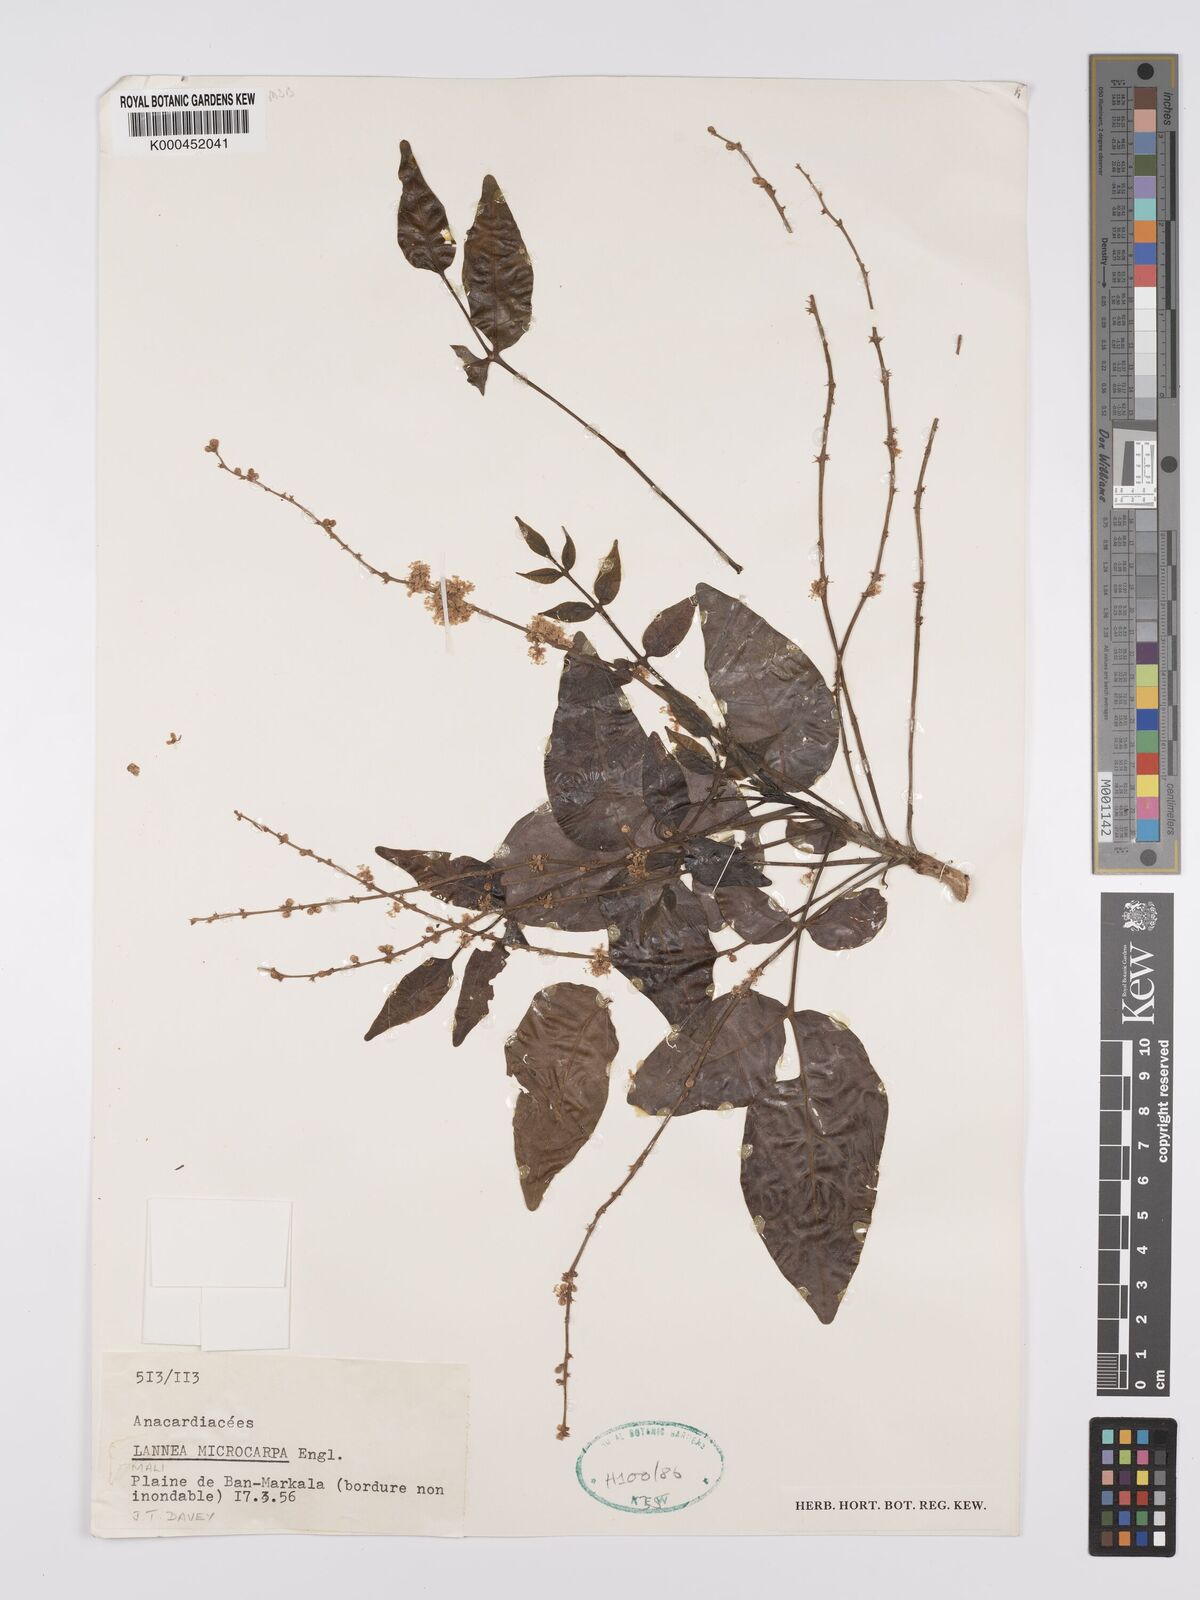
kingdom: Plantae
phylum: Tracheophyta
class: Magnoliopsida
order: Sapindales
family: Anacardiaceae
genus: Lannea
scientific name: Lannea microcarpa
